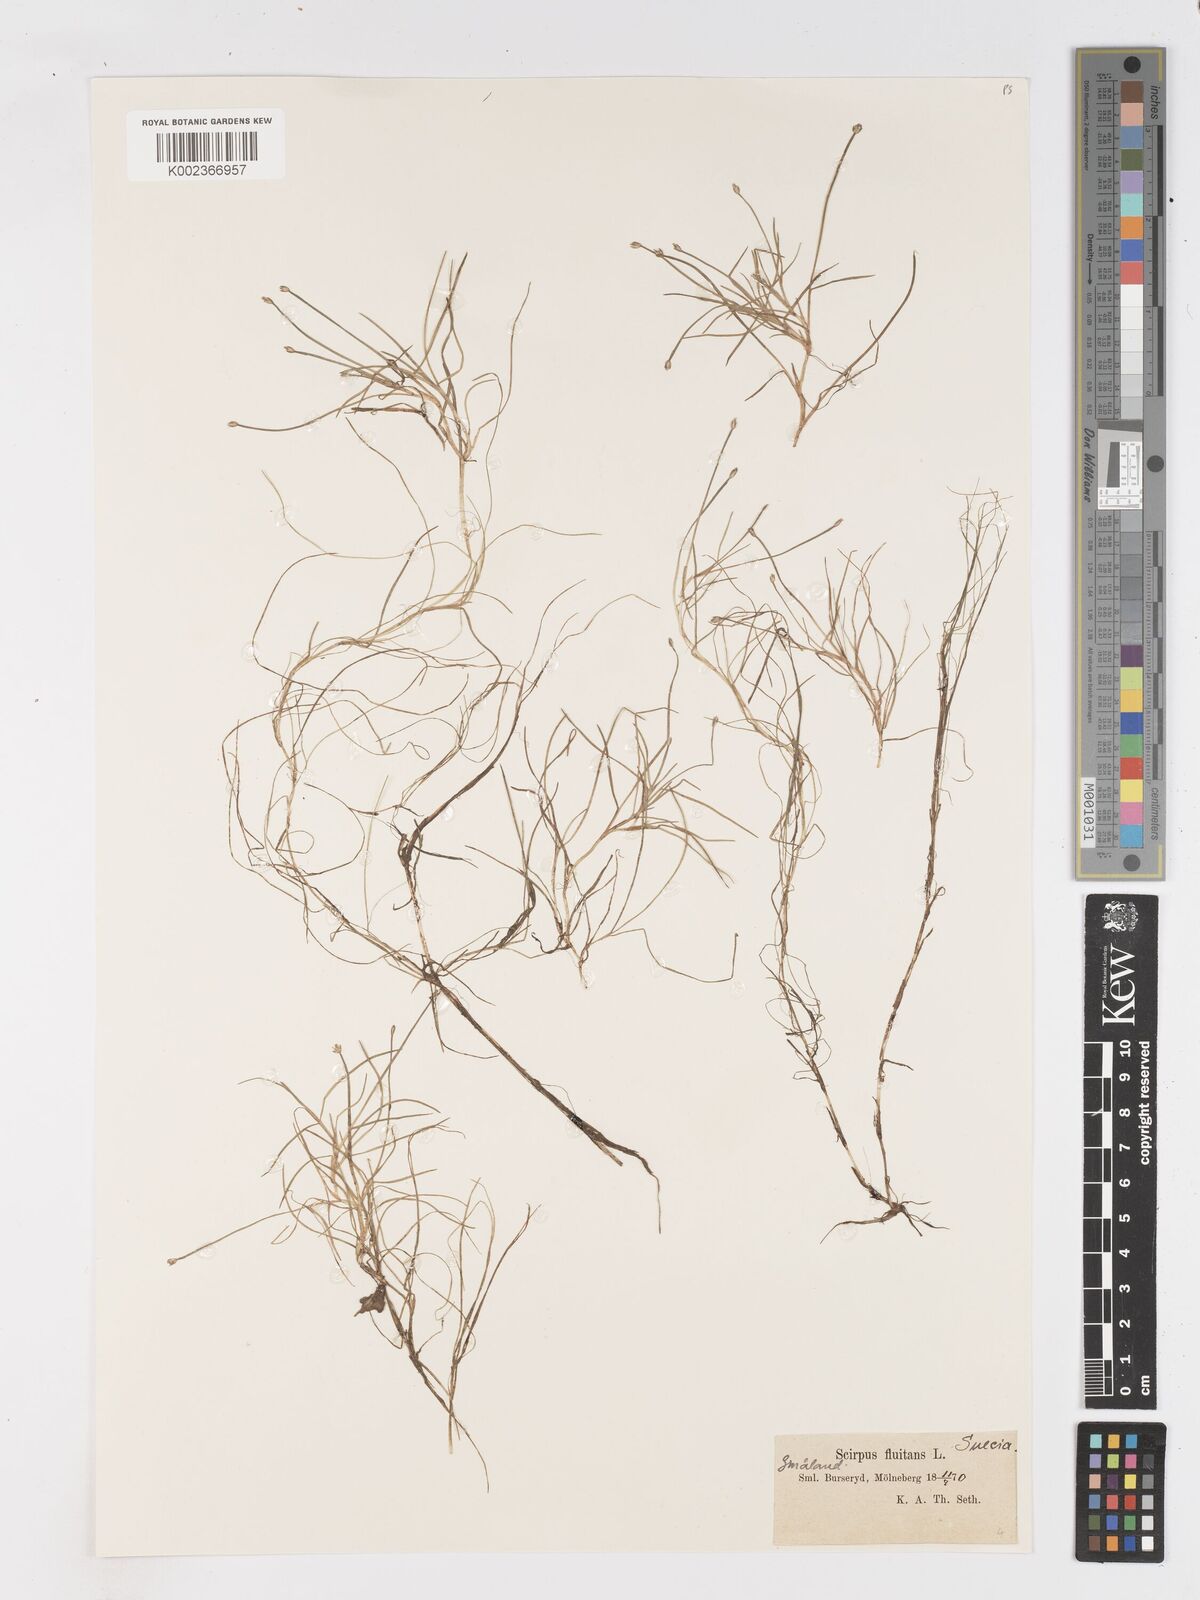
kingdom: Plantae
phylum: Tracheophyta
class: Liliopsida
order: Poales
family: Cyperaceae
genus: Isolepis
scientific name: Isolepis fluitans
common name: Floating club-rush
